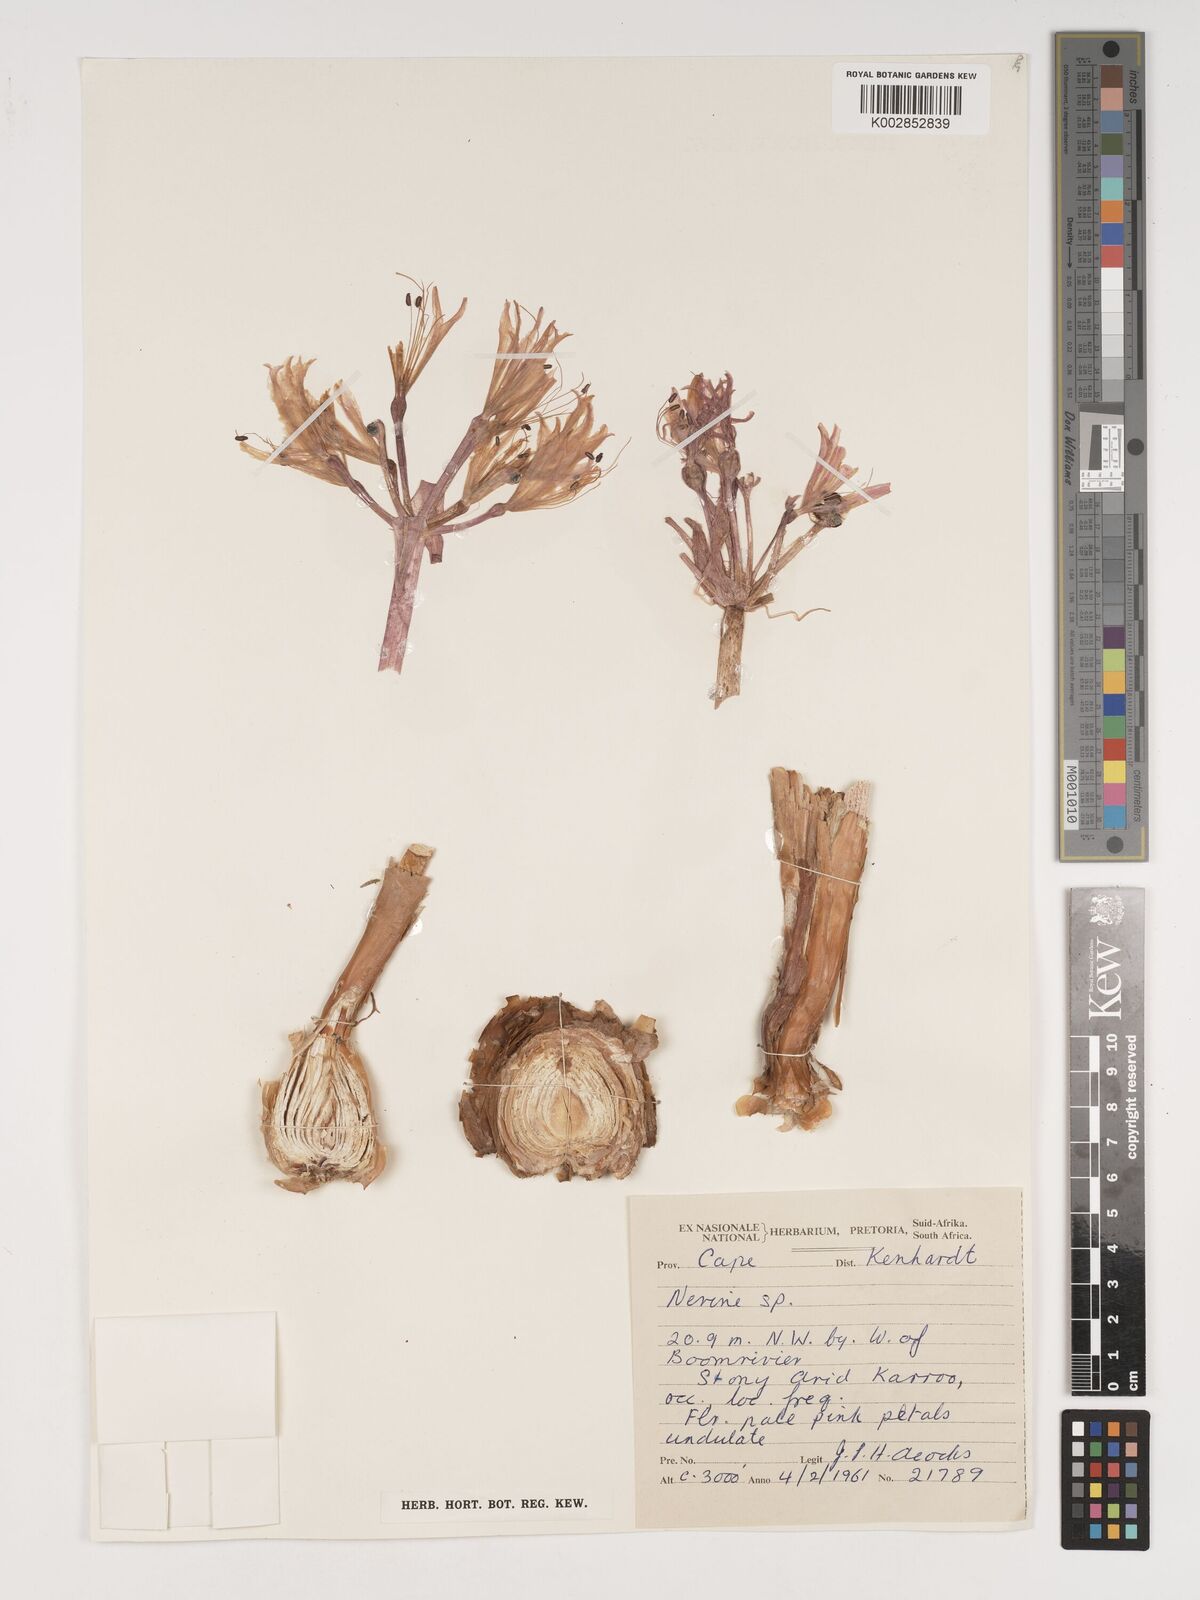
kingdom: Plantae
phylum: Tracheophyta
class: Liliopsida
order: Asparagales
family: Amaryllidaceae
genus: Nerine
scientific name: Nerine
